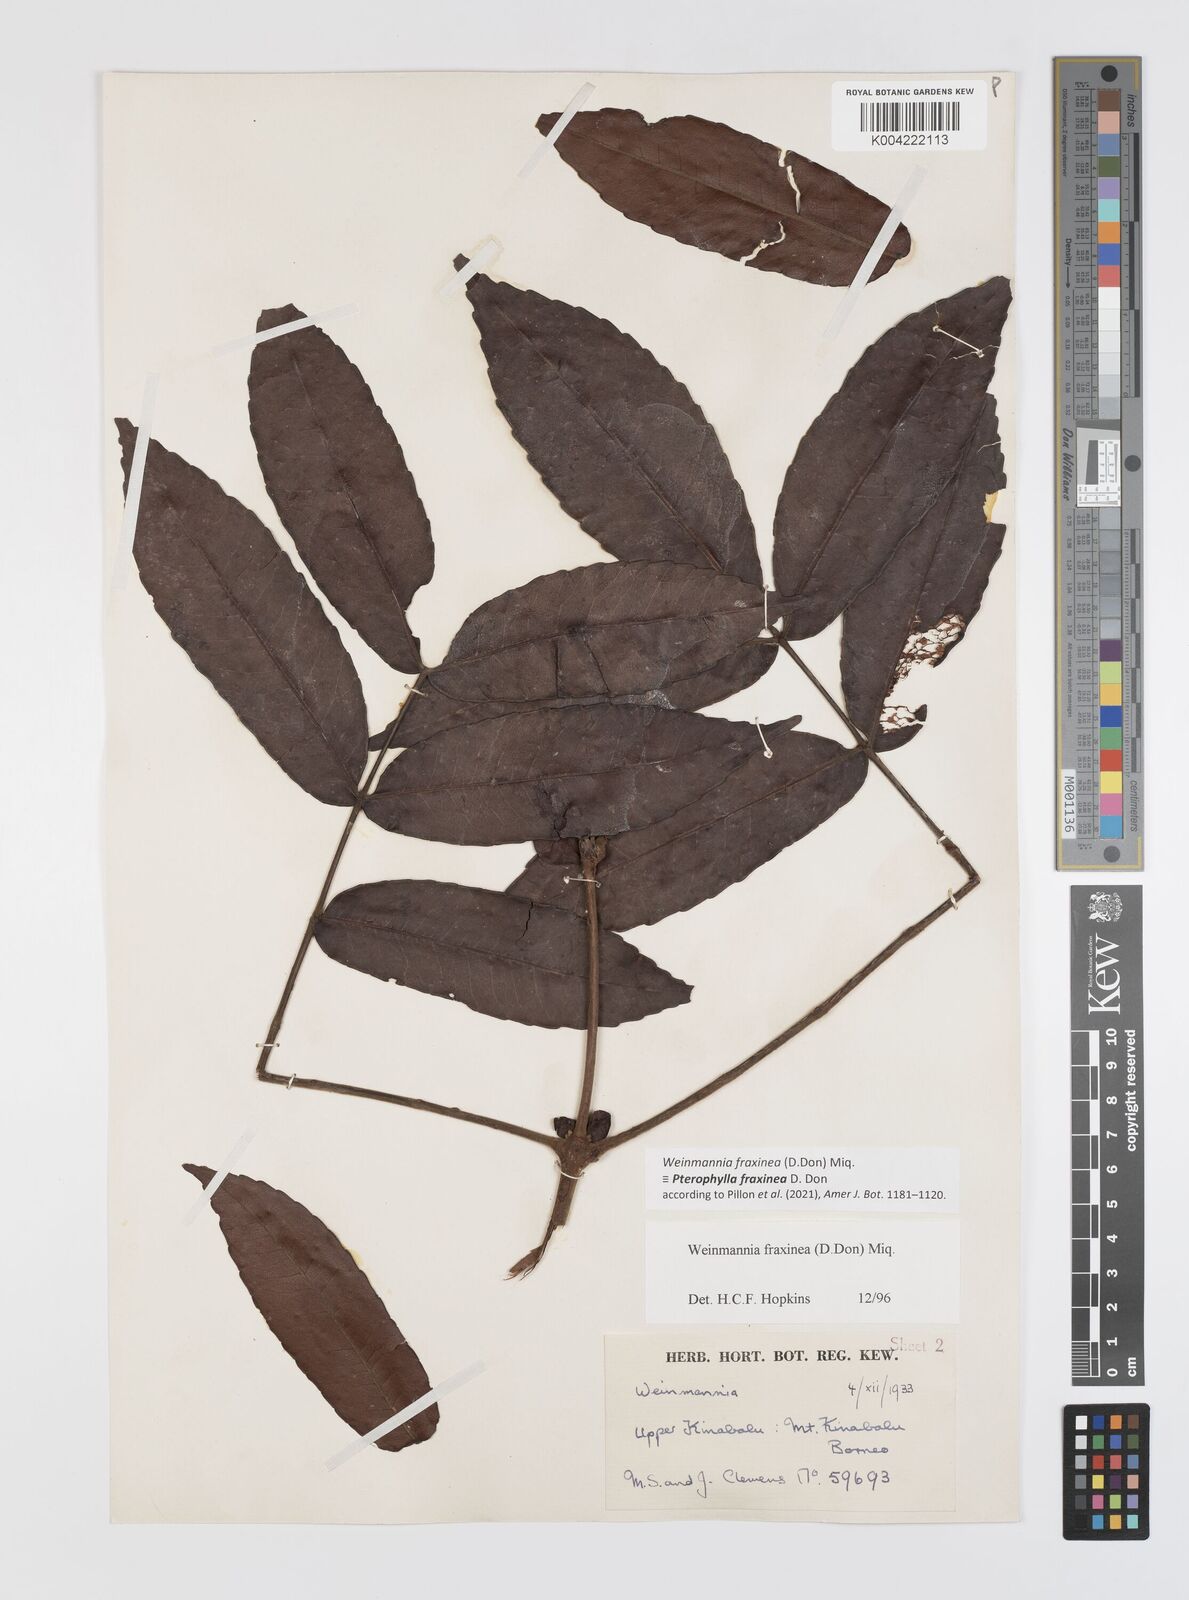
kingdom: Plantae
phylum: Tracheophyta
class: Magnoliopsida
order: Oxalidales
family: Cunoniaceae
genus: Pterophylla
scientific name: Pterophylla fraxinea
